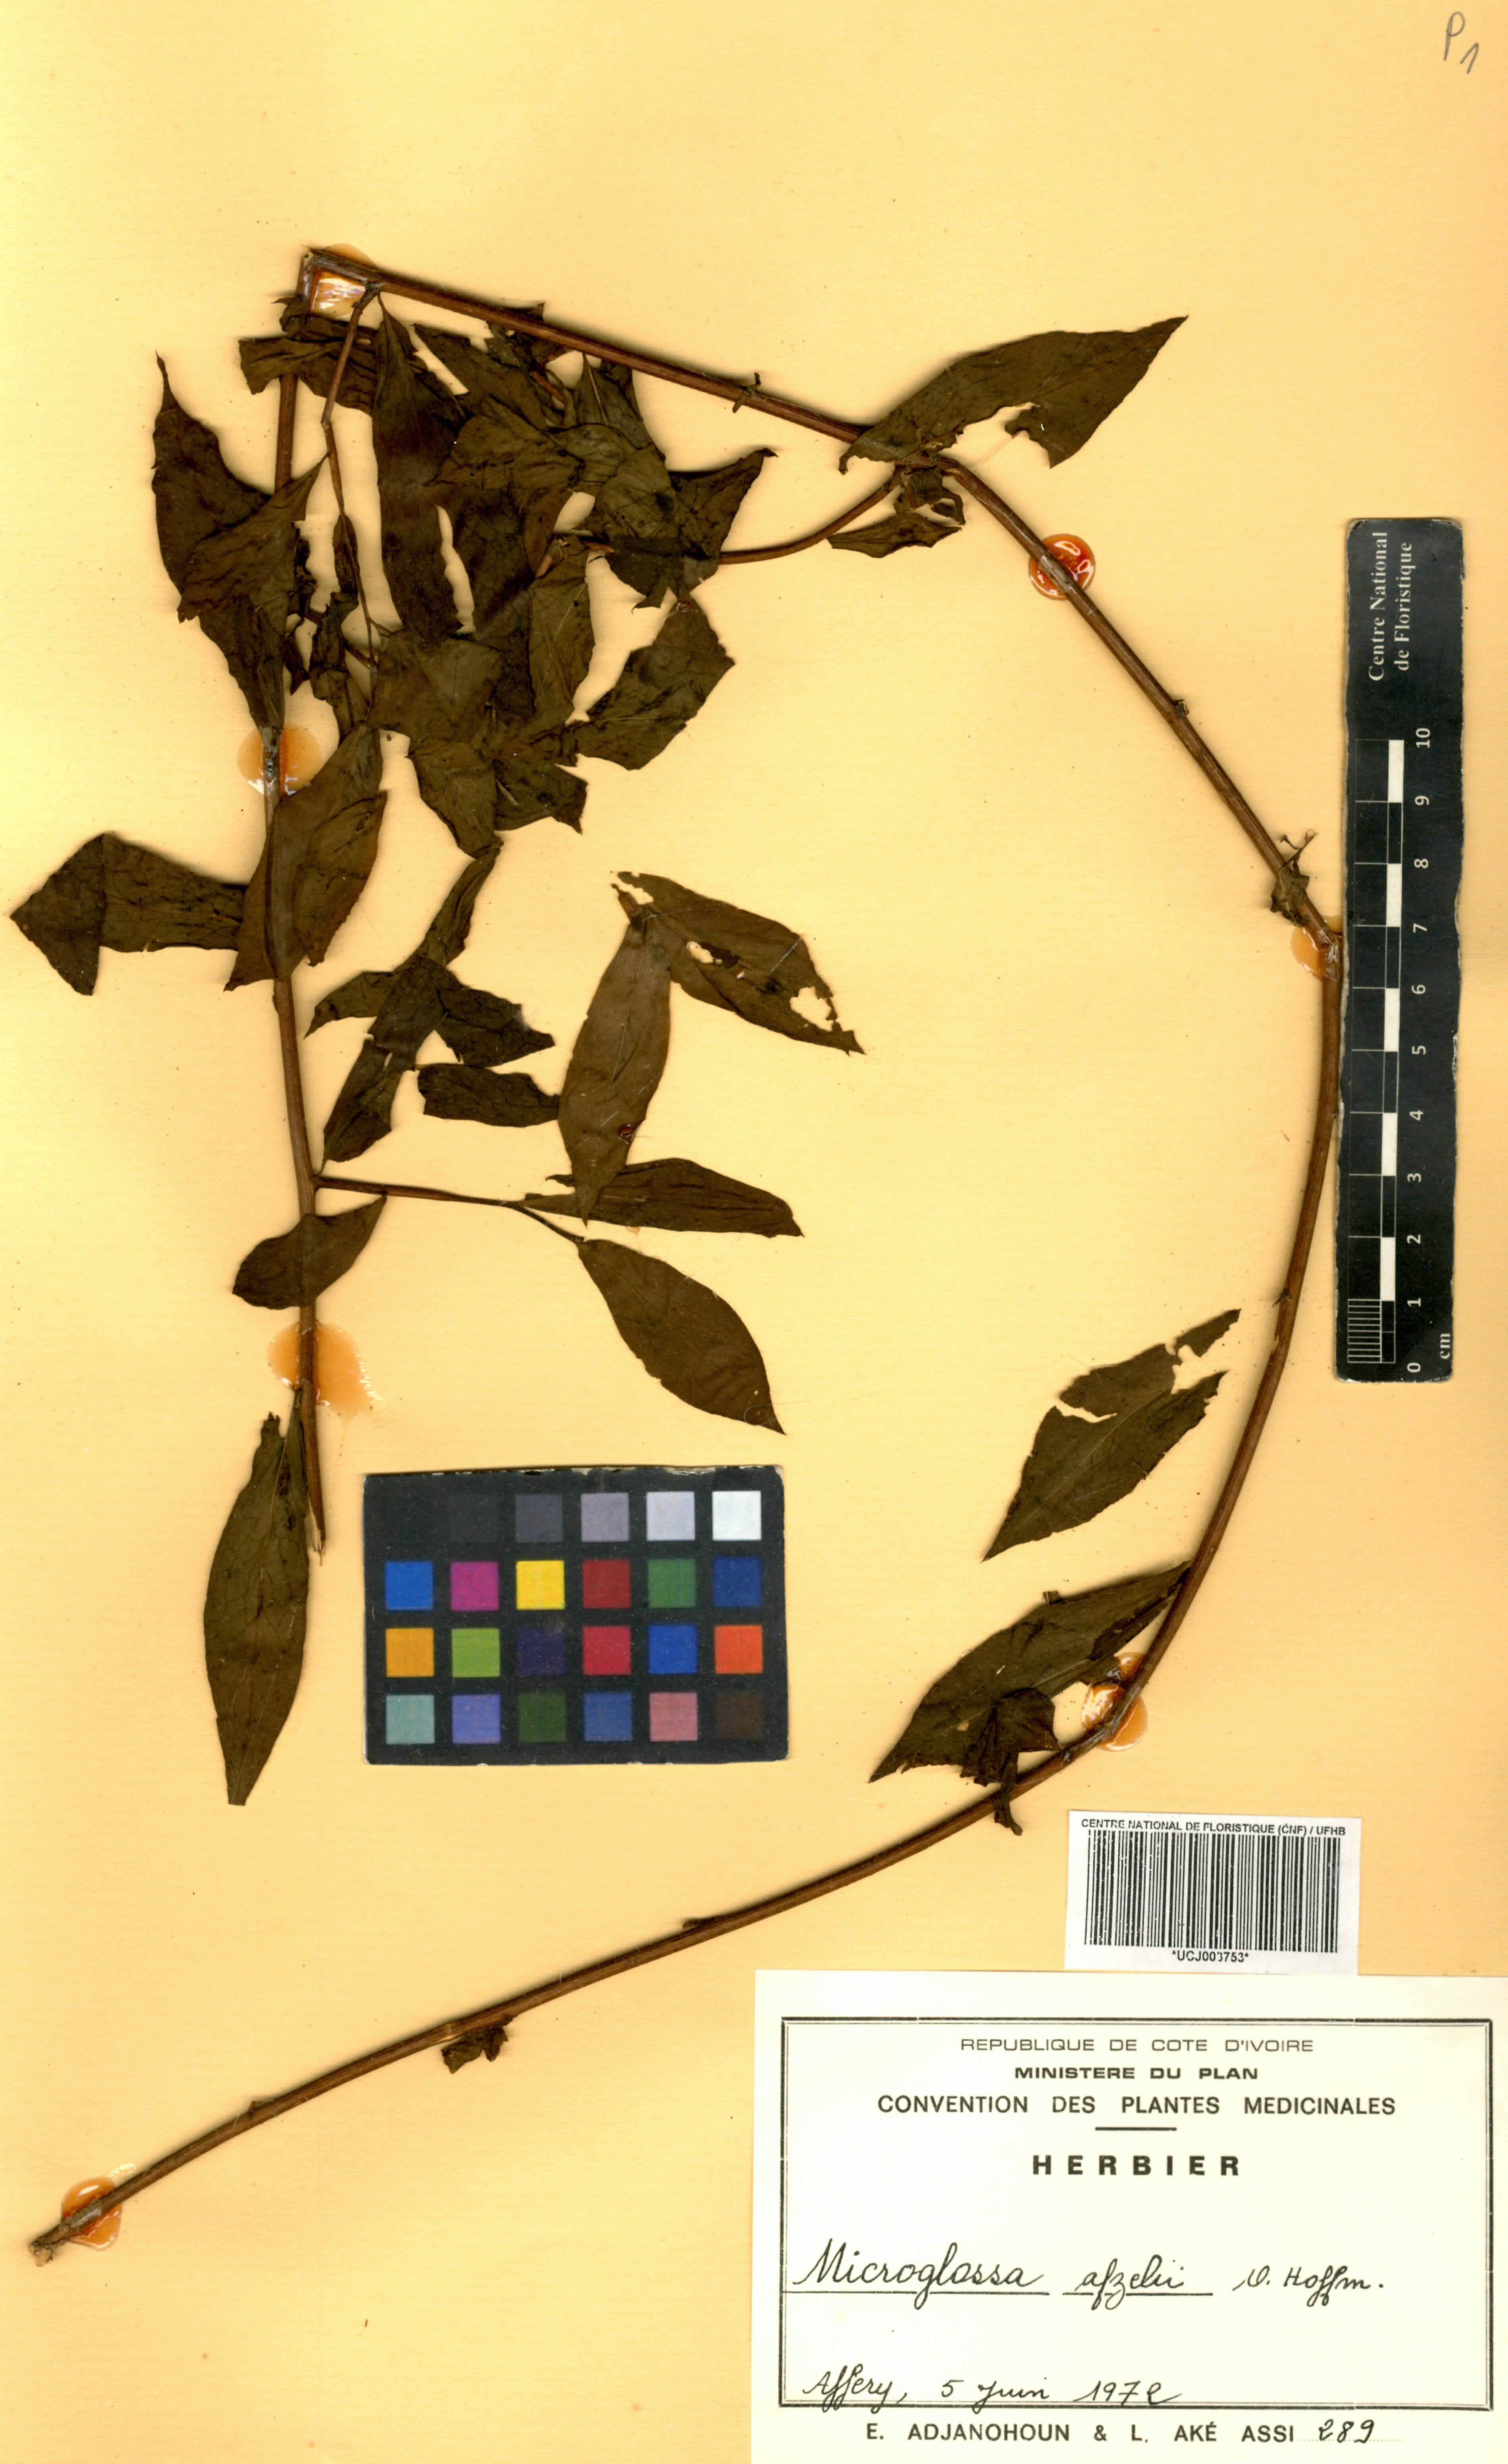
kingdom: Plantae
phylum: Tracheophyta
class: Magnoliopsida
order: Asterales
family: Asteraceae
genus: Microglossa
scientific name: Microglossa afzelii
